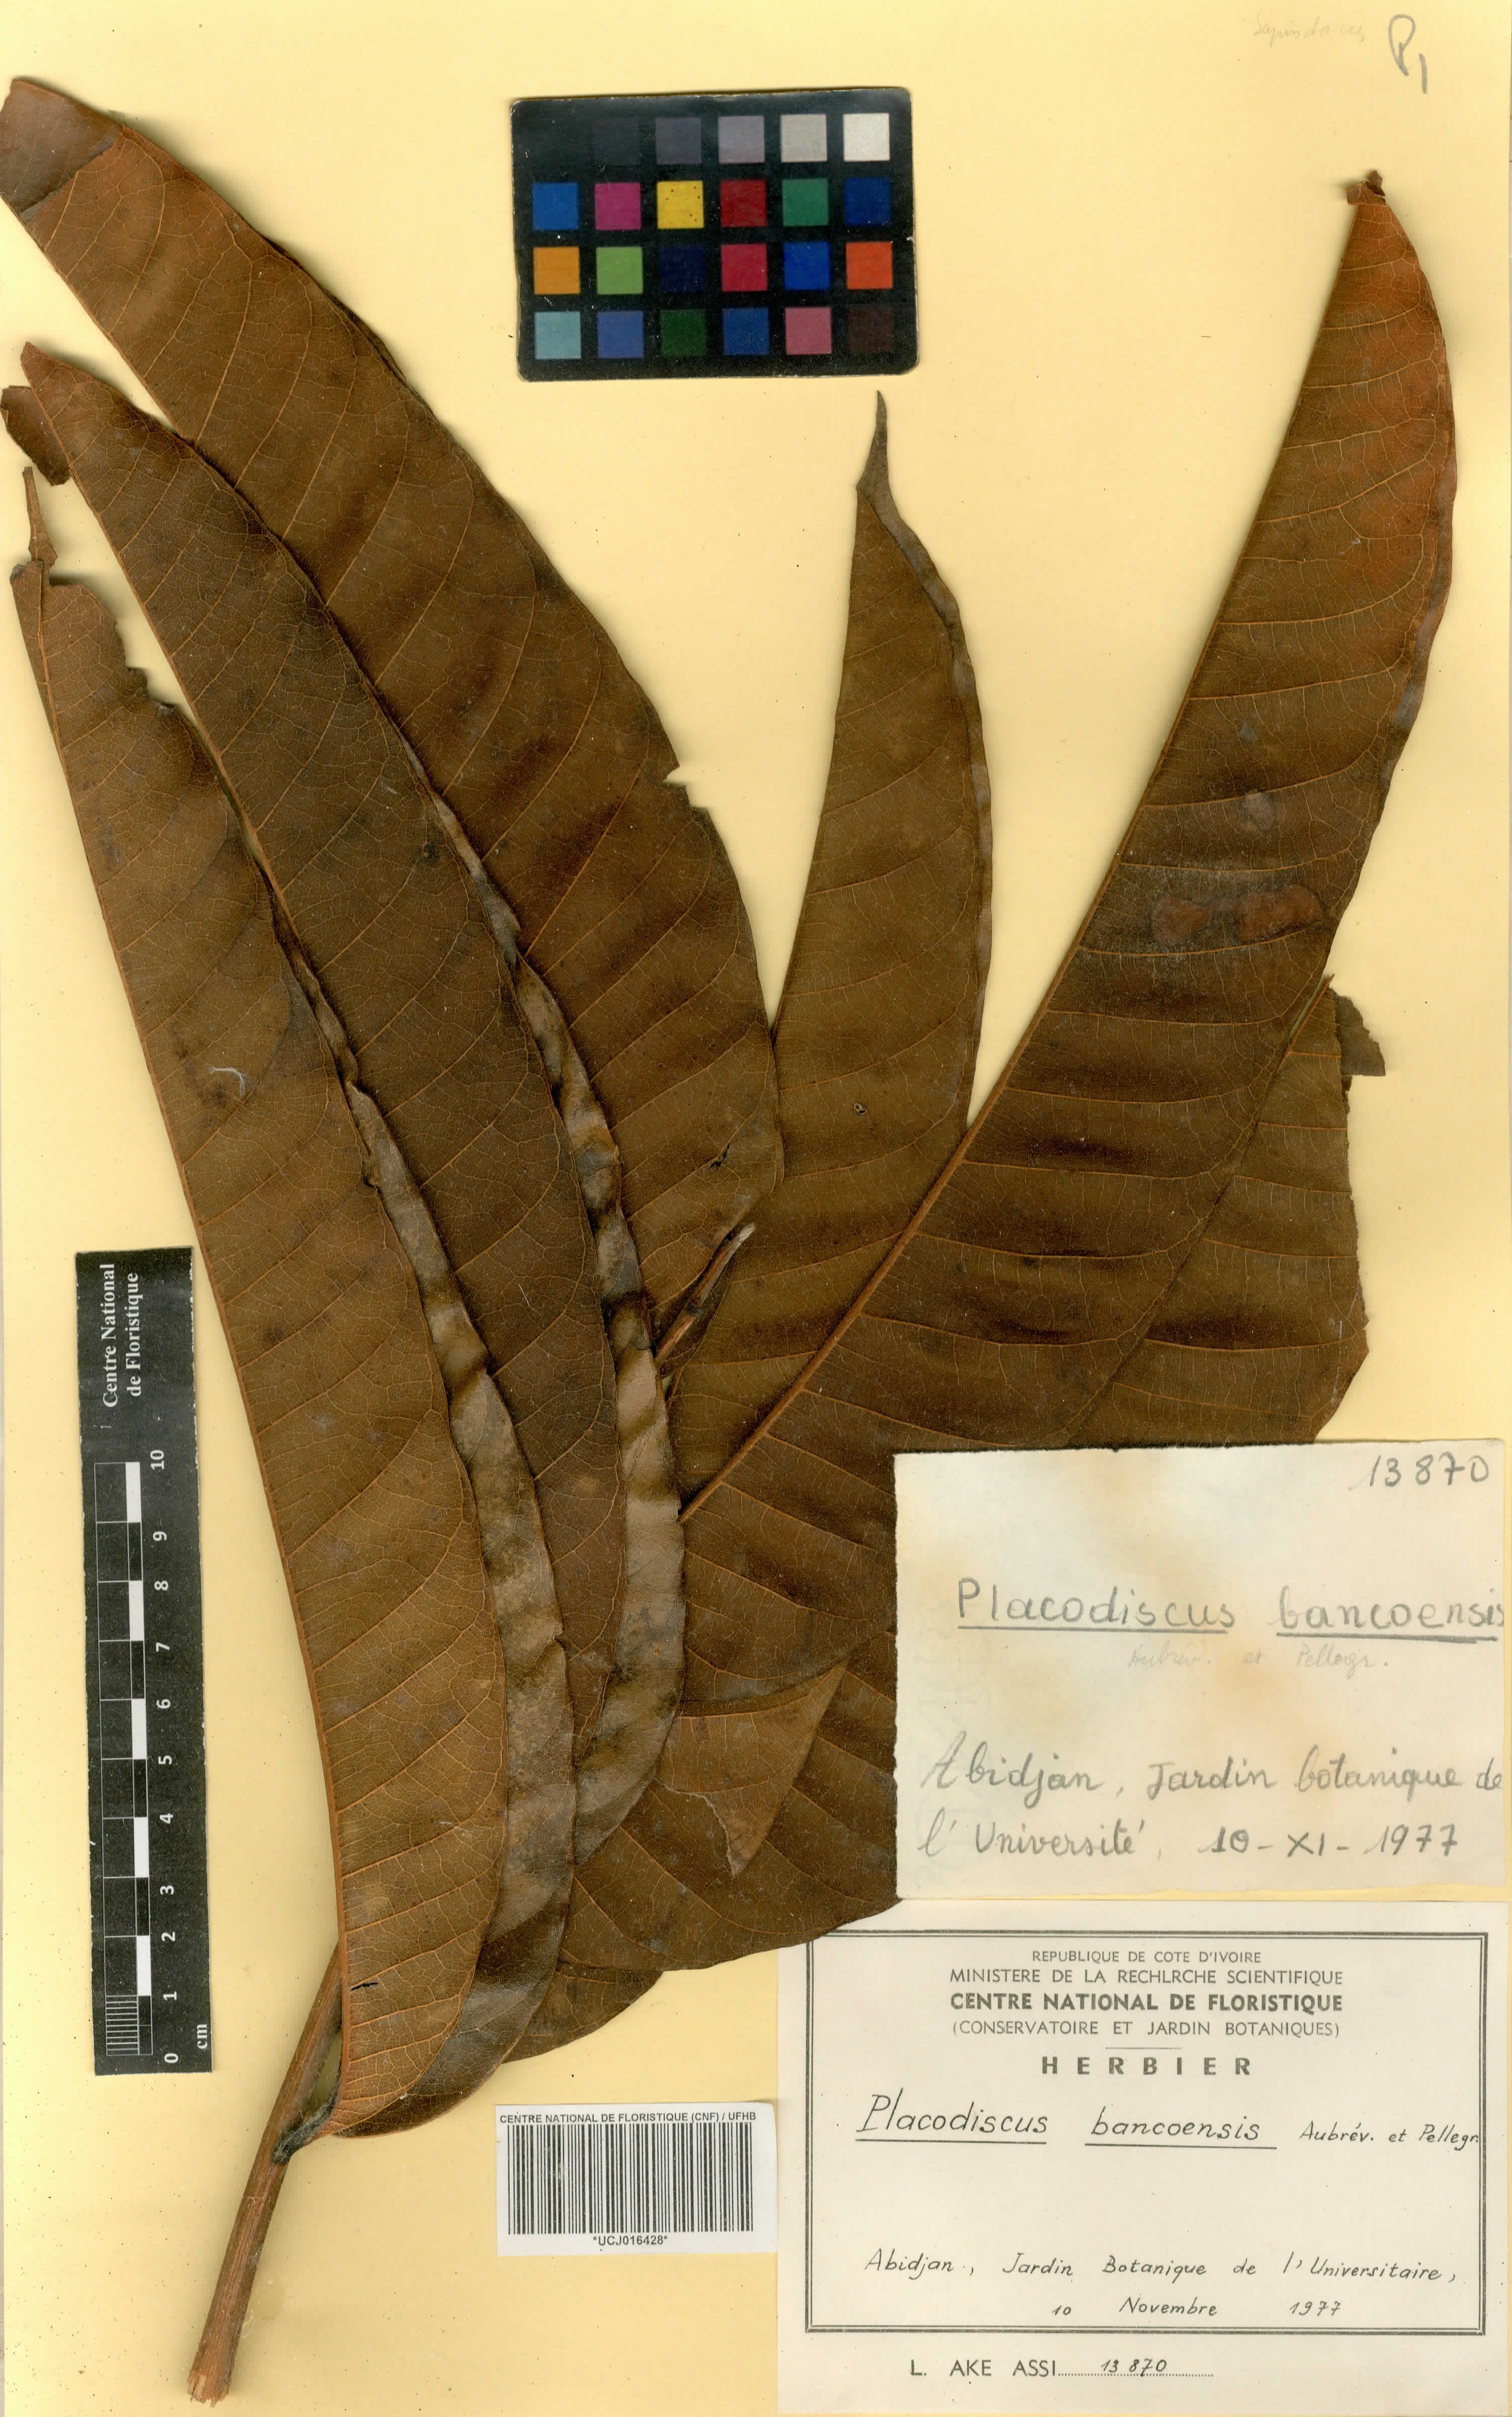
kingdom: Plantae
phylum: Tracheophyta
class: Magnoliopsida
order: Sapindales
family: Sapindaceae
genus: Placodiscus
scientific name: Placodiscus bancoensis
